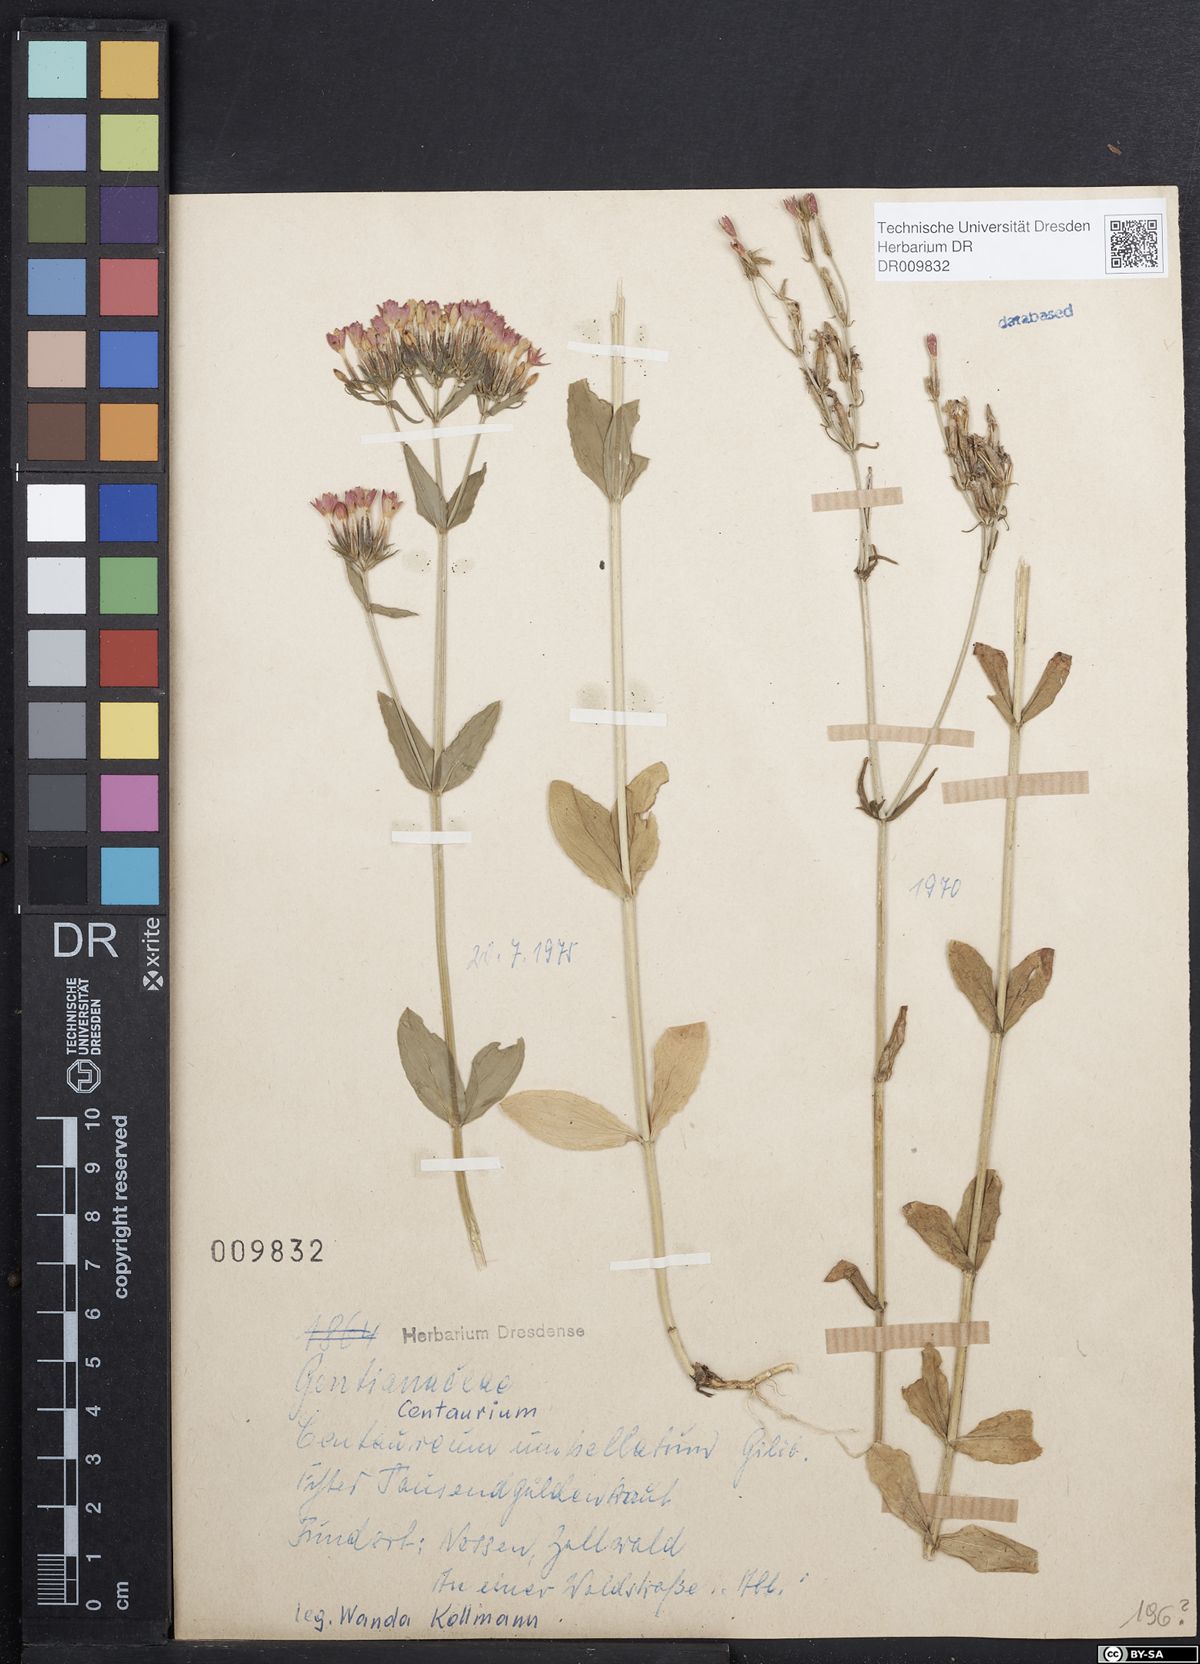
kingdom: Plantae
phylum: Tracheophyta
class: Magnoliopsida
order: Gentianales
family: Gentianaceae
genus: Centaurium
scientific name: Centaurium erythraea
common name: Common centaury
